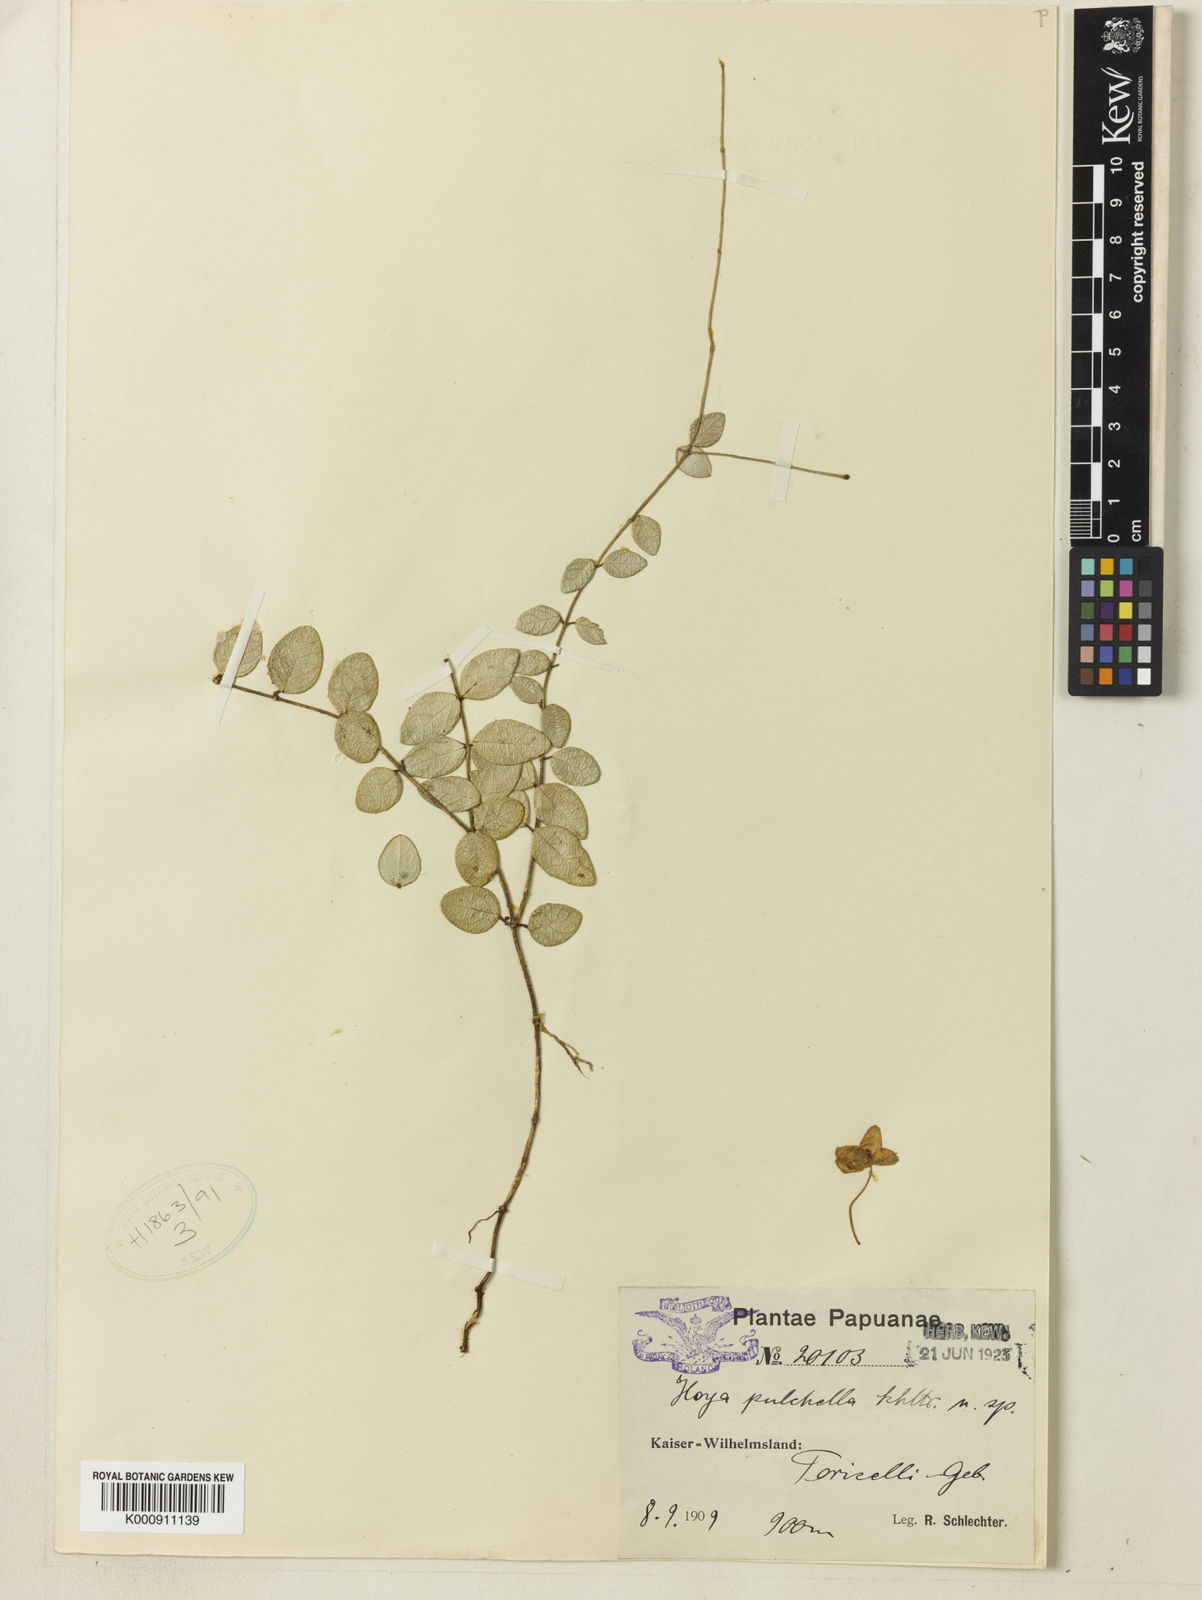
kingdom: Plantae
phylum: Tracheophyta
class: Magnoliopsida
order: Gentianales
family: Apocynaceae
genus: Hoya
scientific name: Hoya pulchella
